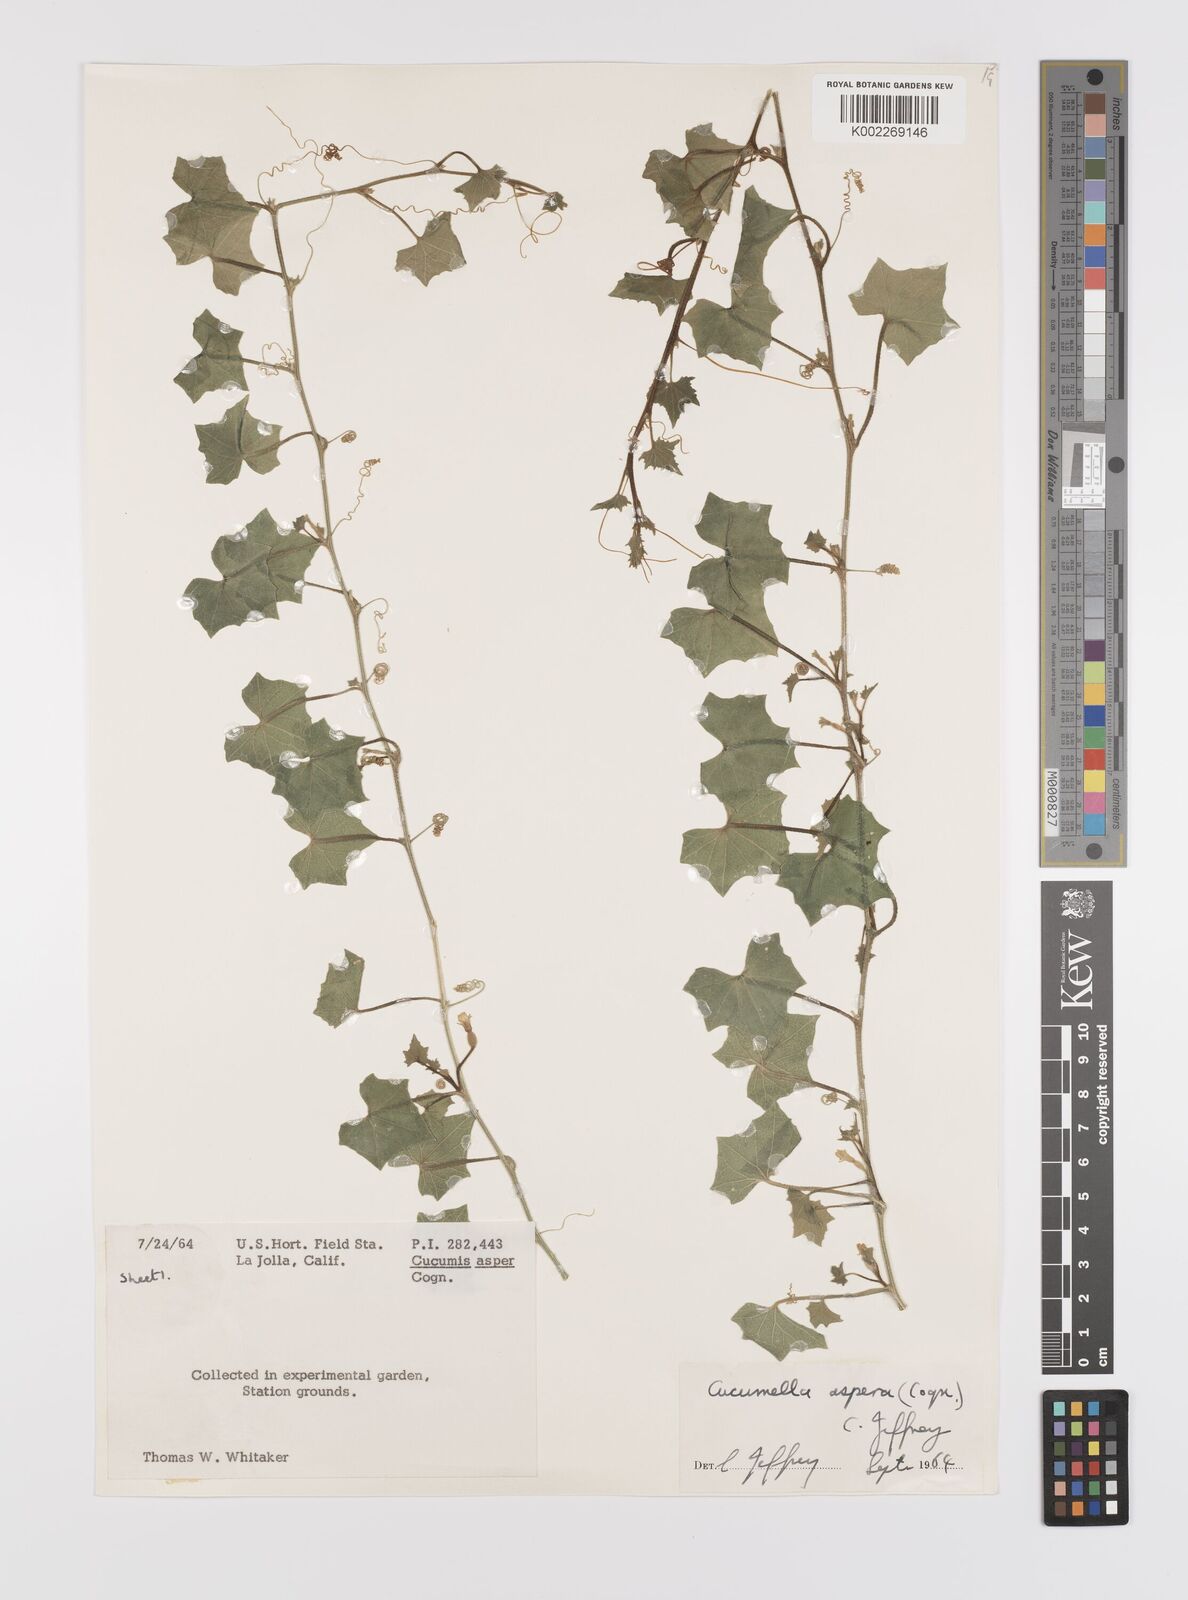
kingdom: Plantae
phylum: Tracheophyta
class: Magnoliopsida
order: Cucurbitales
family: Cucurbitaceae
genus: Cucumis
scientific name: Cucumis asper
